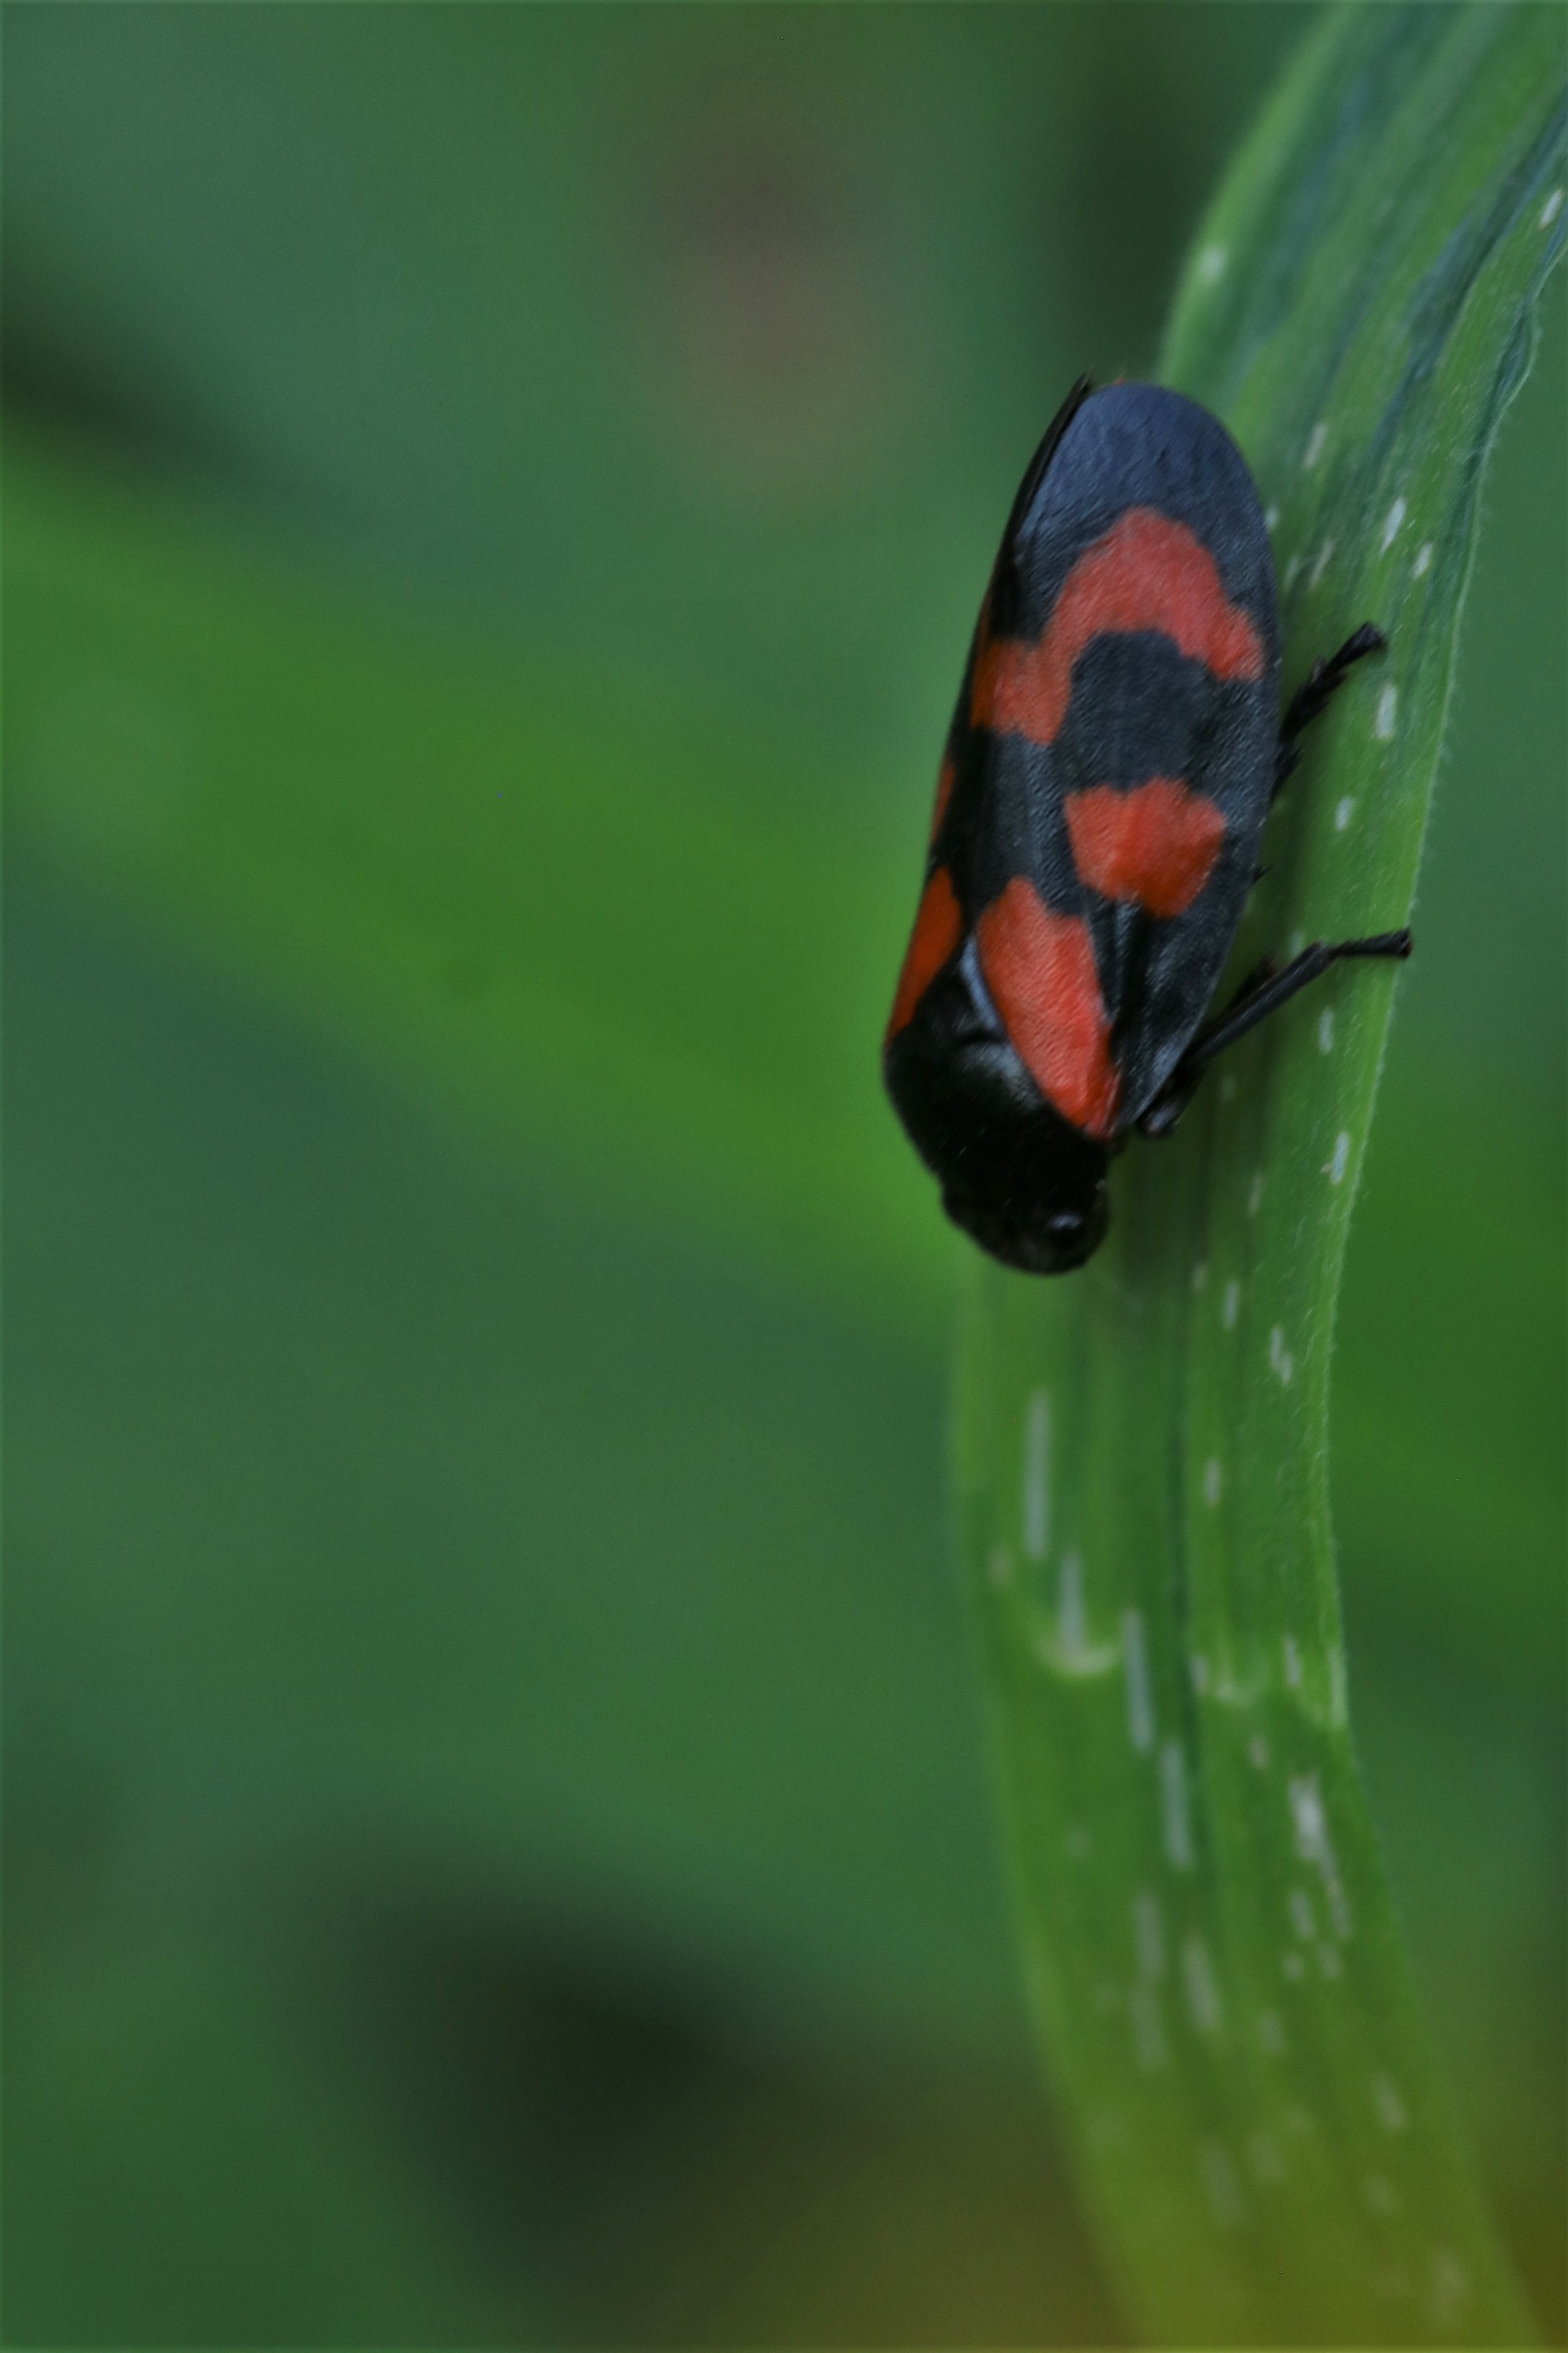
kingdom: Animalia
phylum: Arthropoda
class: Insecta
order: Hemiptera
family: Cercopidae
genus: Cercopis
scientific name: Cercopis vulnerata
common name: Blodcikade
